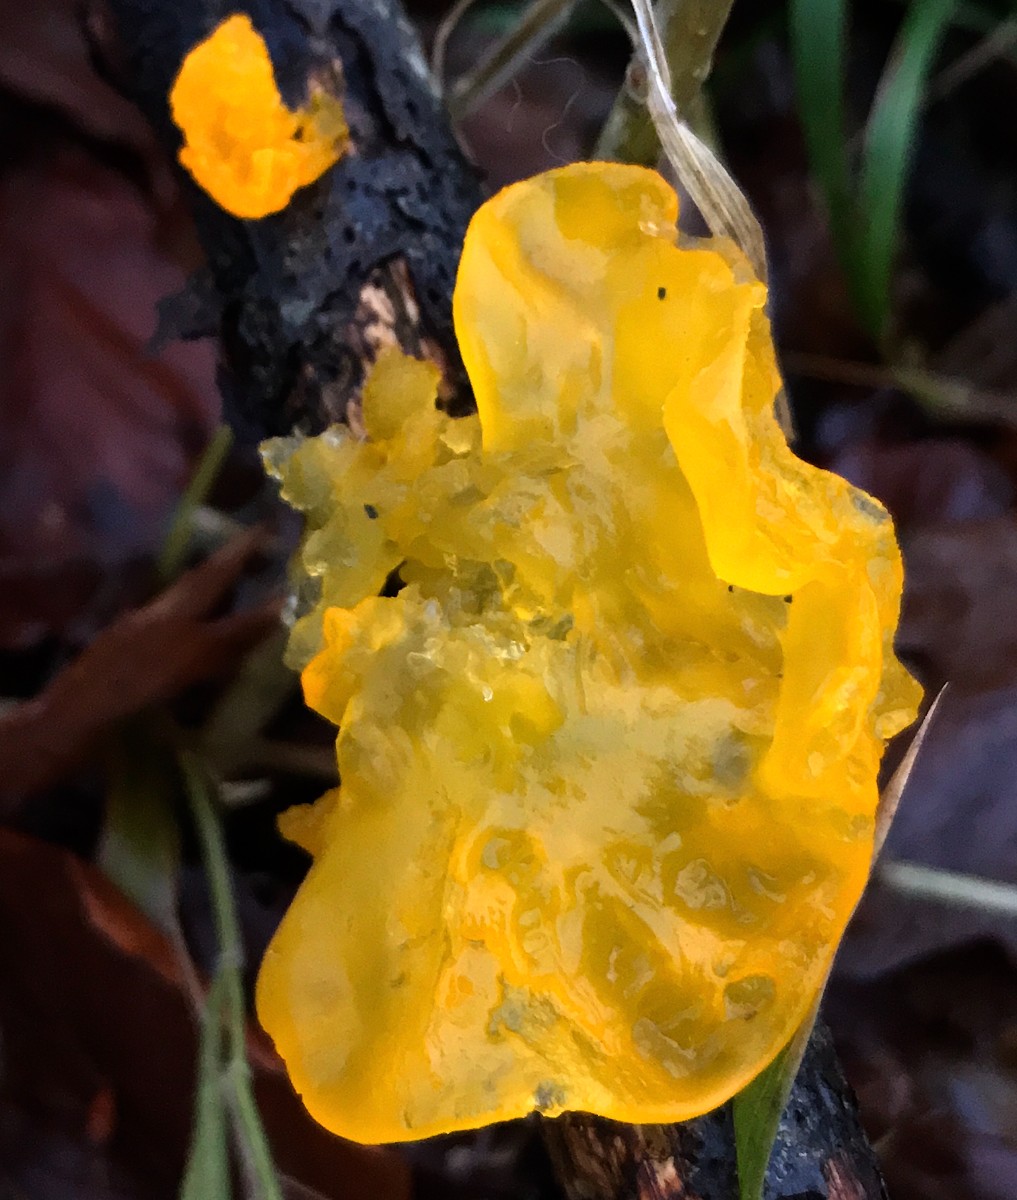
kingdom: Fungi
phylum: Basidiomycota
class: Tremellomycetes
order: Tremellales
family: Tremellaceae
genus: Tremella
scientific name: Tremella mesenterica
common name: gul bævresvamp
